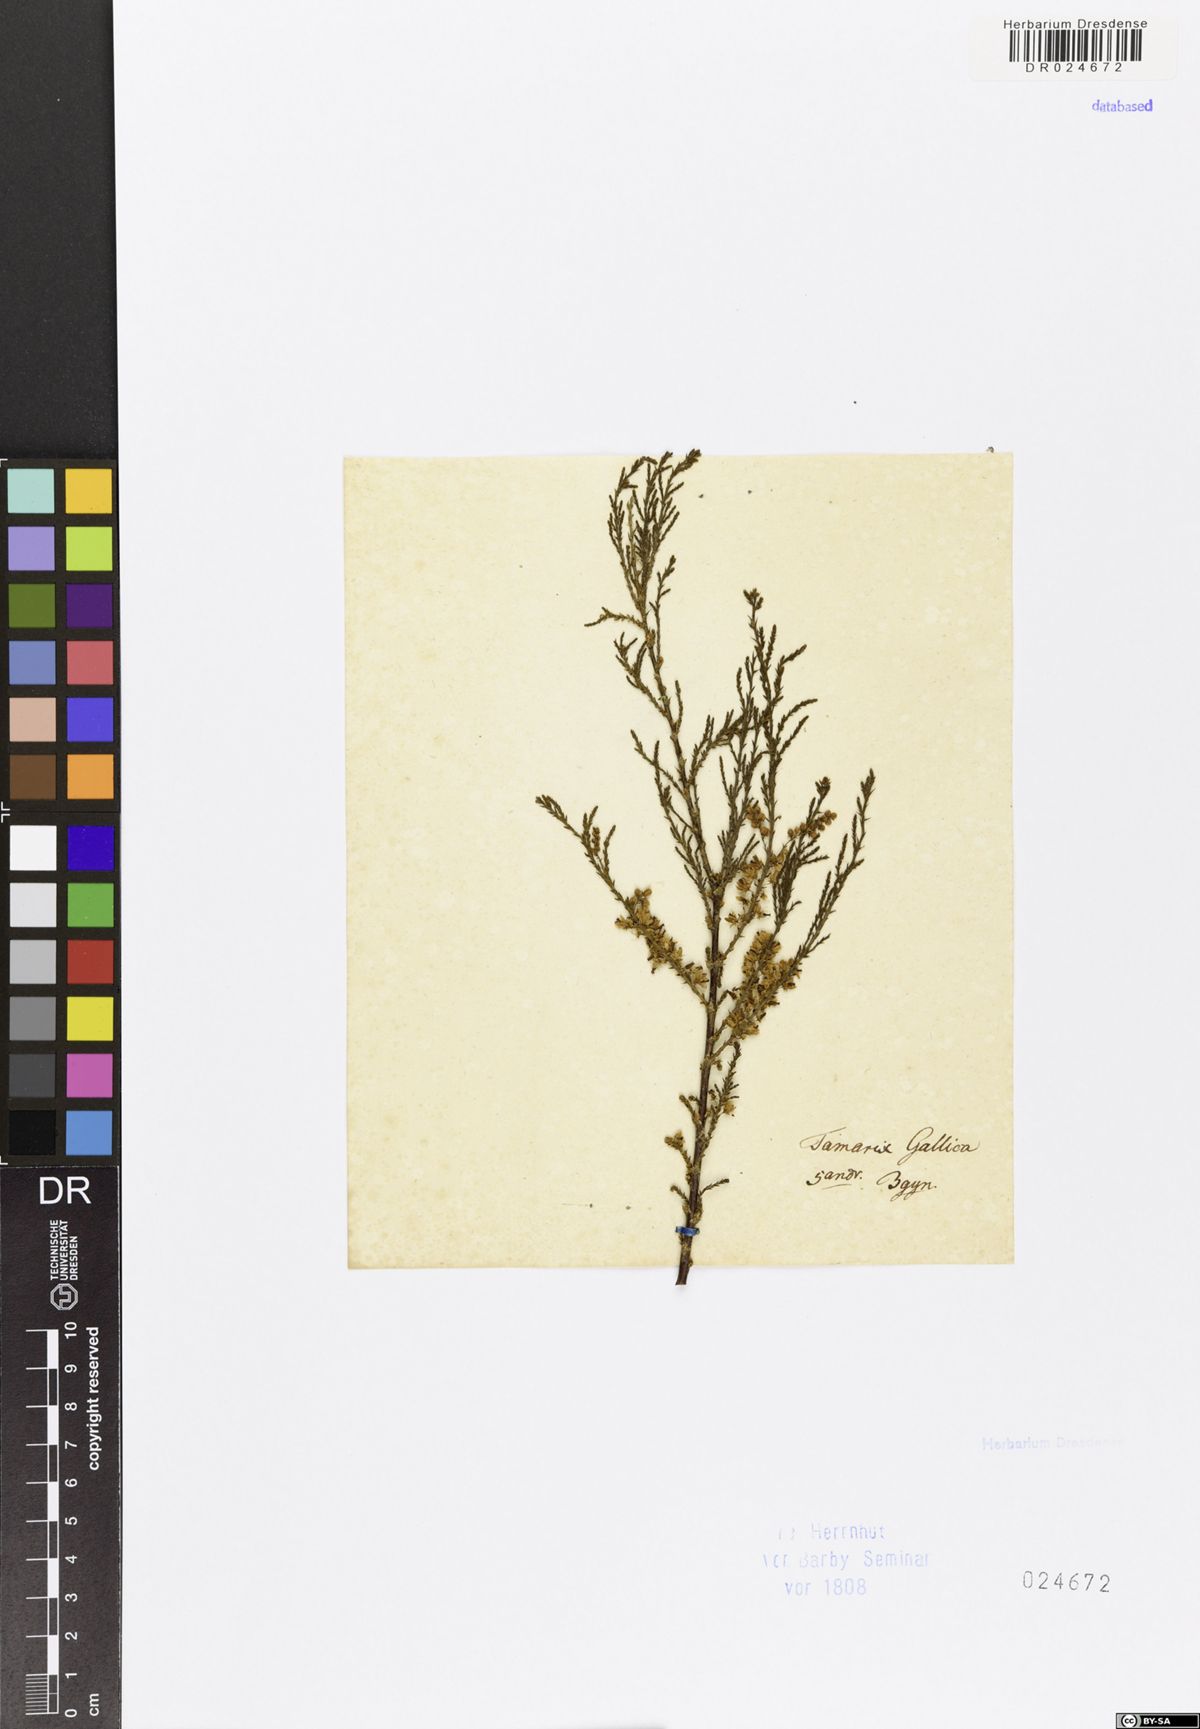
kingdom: Plantae
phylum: Tracheophyta
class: Magnoliopsida
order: Caryophyllales
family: Tamaricaceae
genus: Tamarix
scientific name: Tamarix ramosissima
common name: Pink tamarisk
